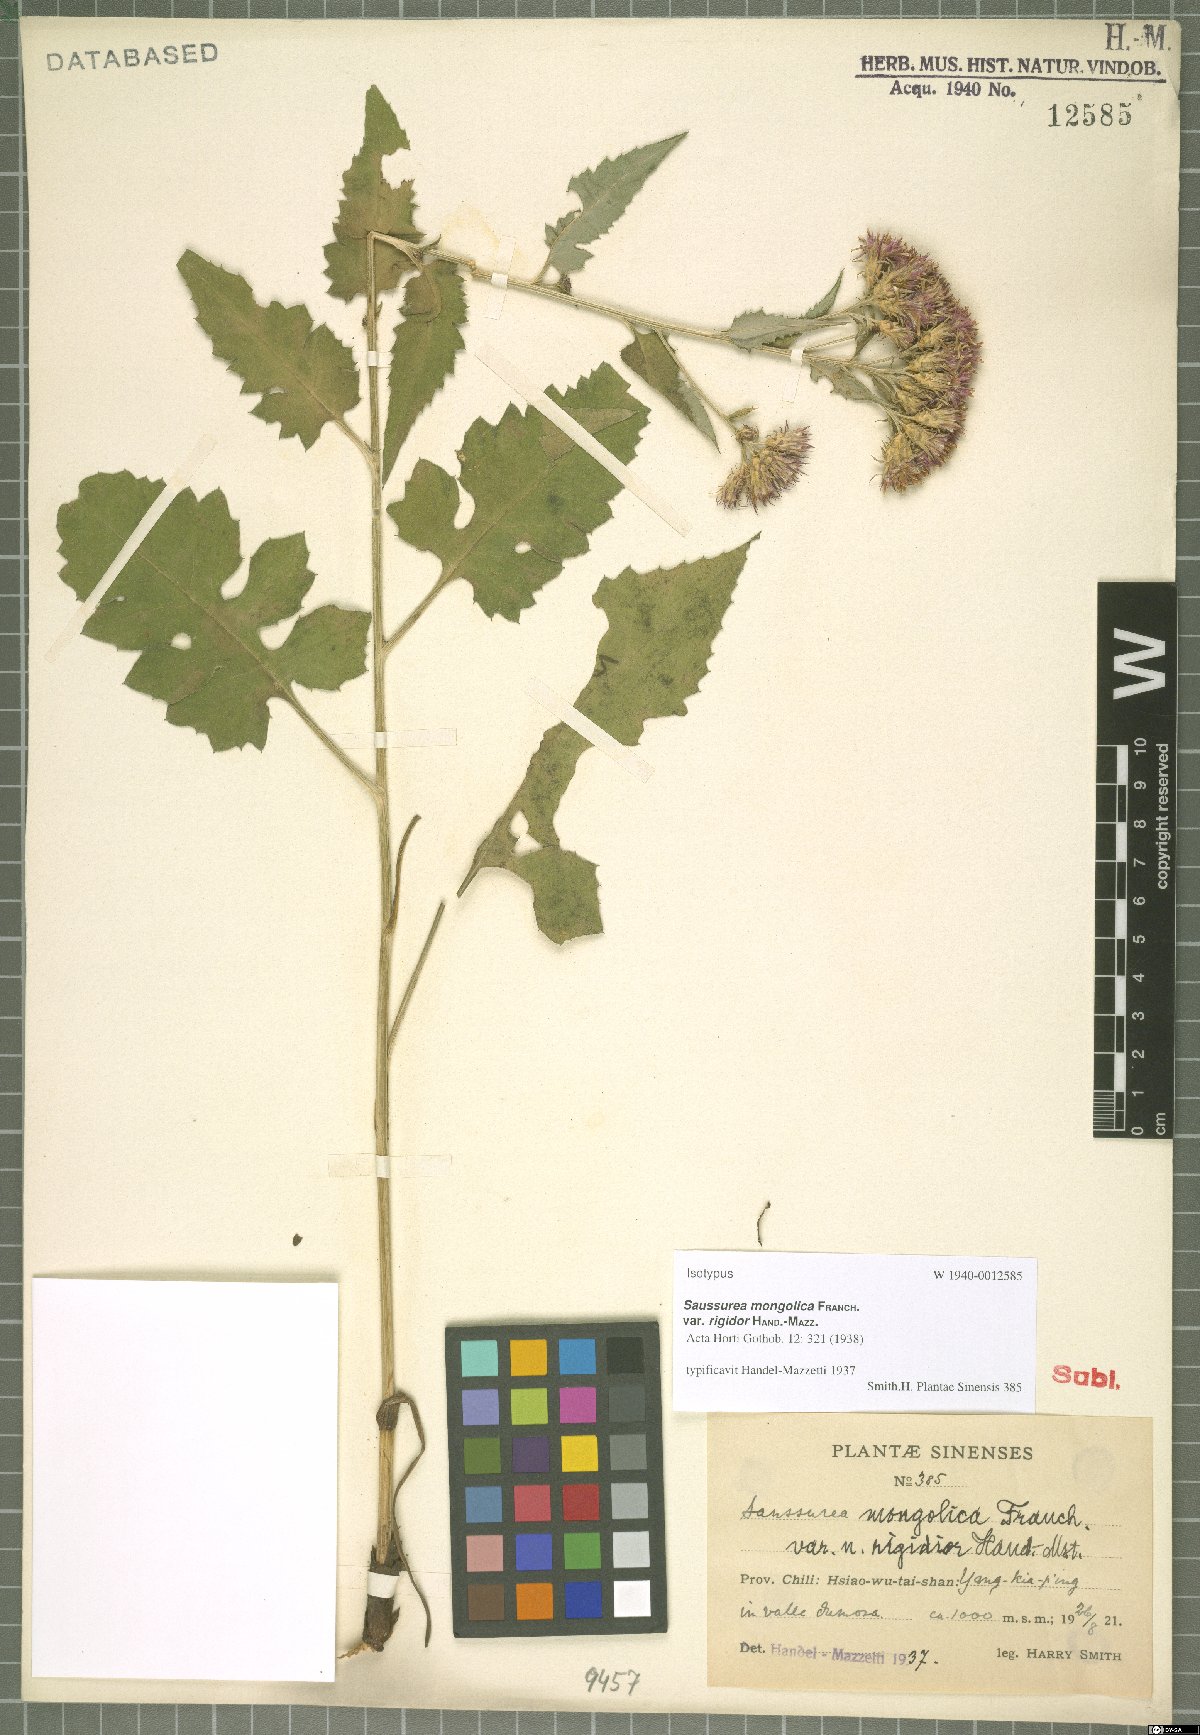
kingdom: Plantae
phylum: Tracheophyta
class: Magnoliopsida
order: Asterales
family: Asteraceae
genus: Saussurea
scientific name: Saussurea mongolica
